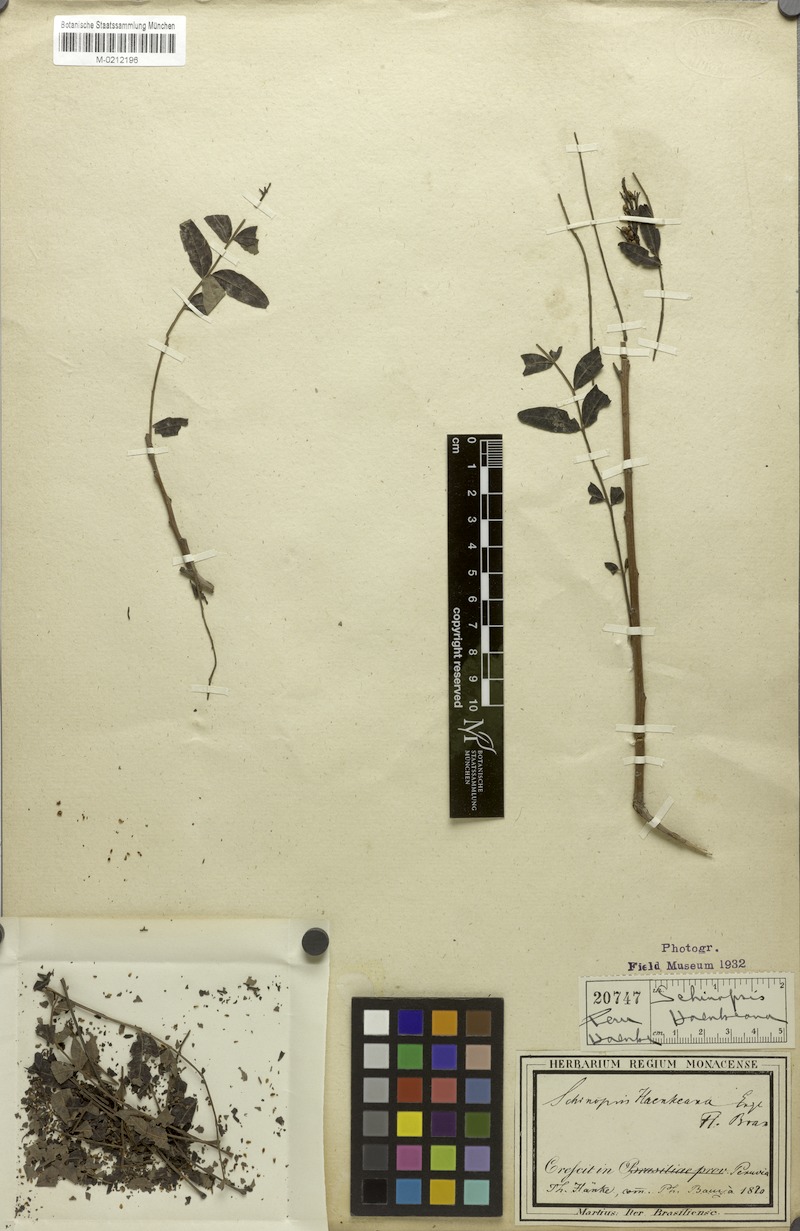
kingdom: Plantae
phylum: Tracheophyta
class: Magnoliopsida
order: Sapindales
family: Anacardiaceae
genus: Schinopsis
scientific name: Schinopsis marginata
